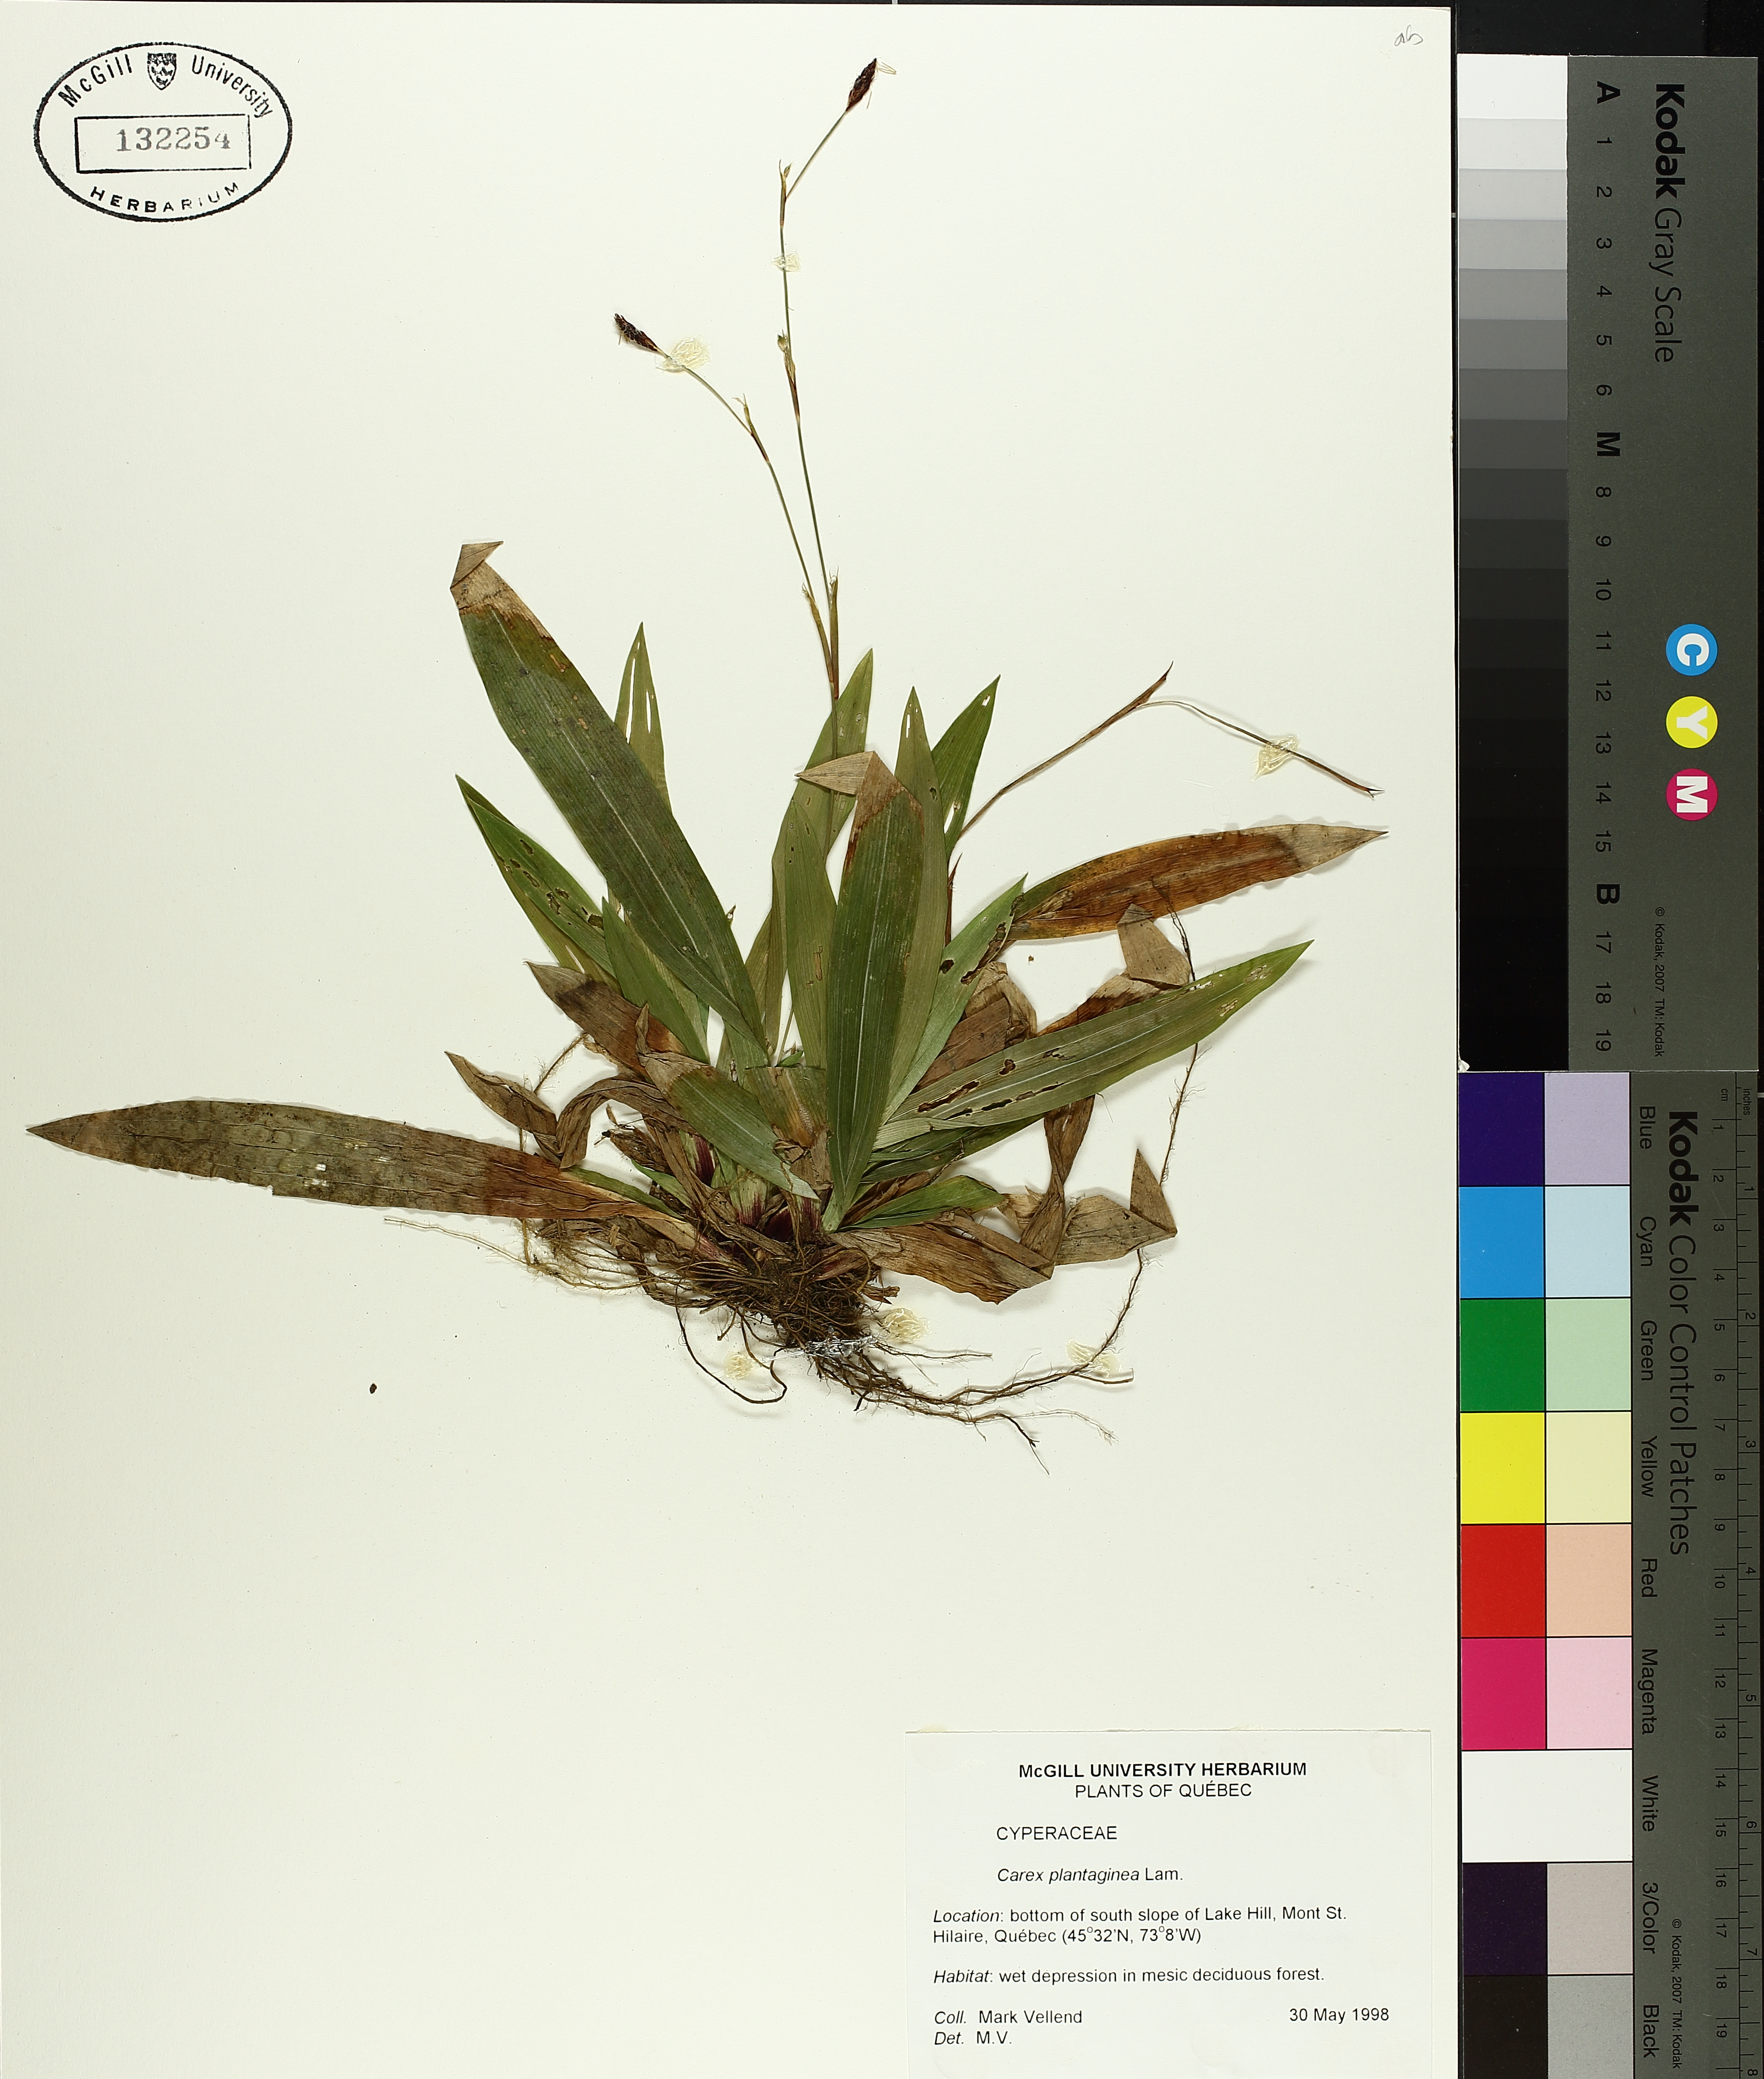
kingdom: Plantae
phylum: Tracheophyta
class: Liliopsida
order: Poales
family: Cyperaceae
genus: Carex
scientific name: Carex plantaginea
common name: Plantain-leaved sedge
